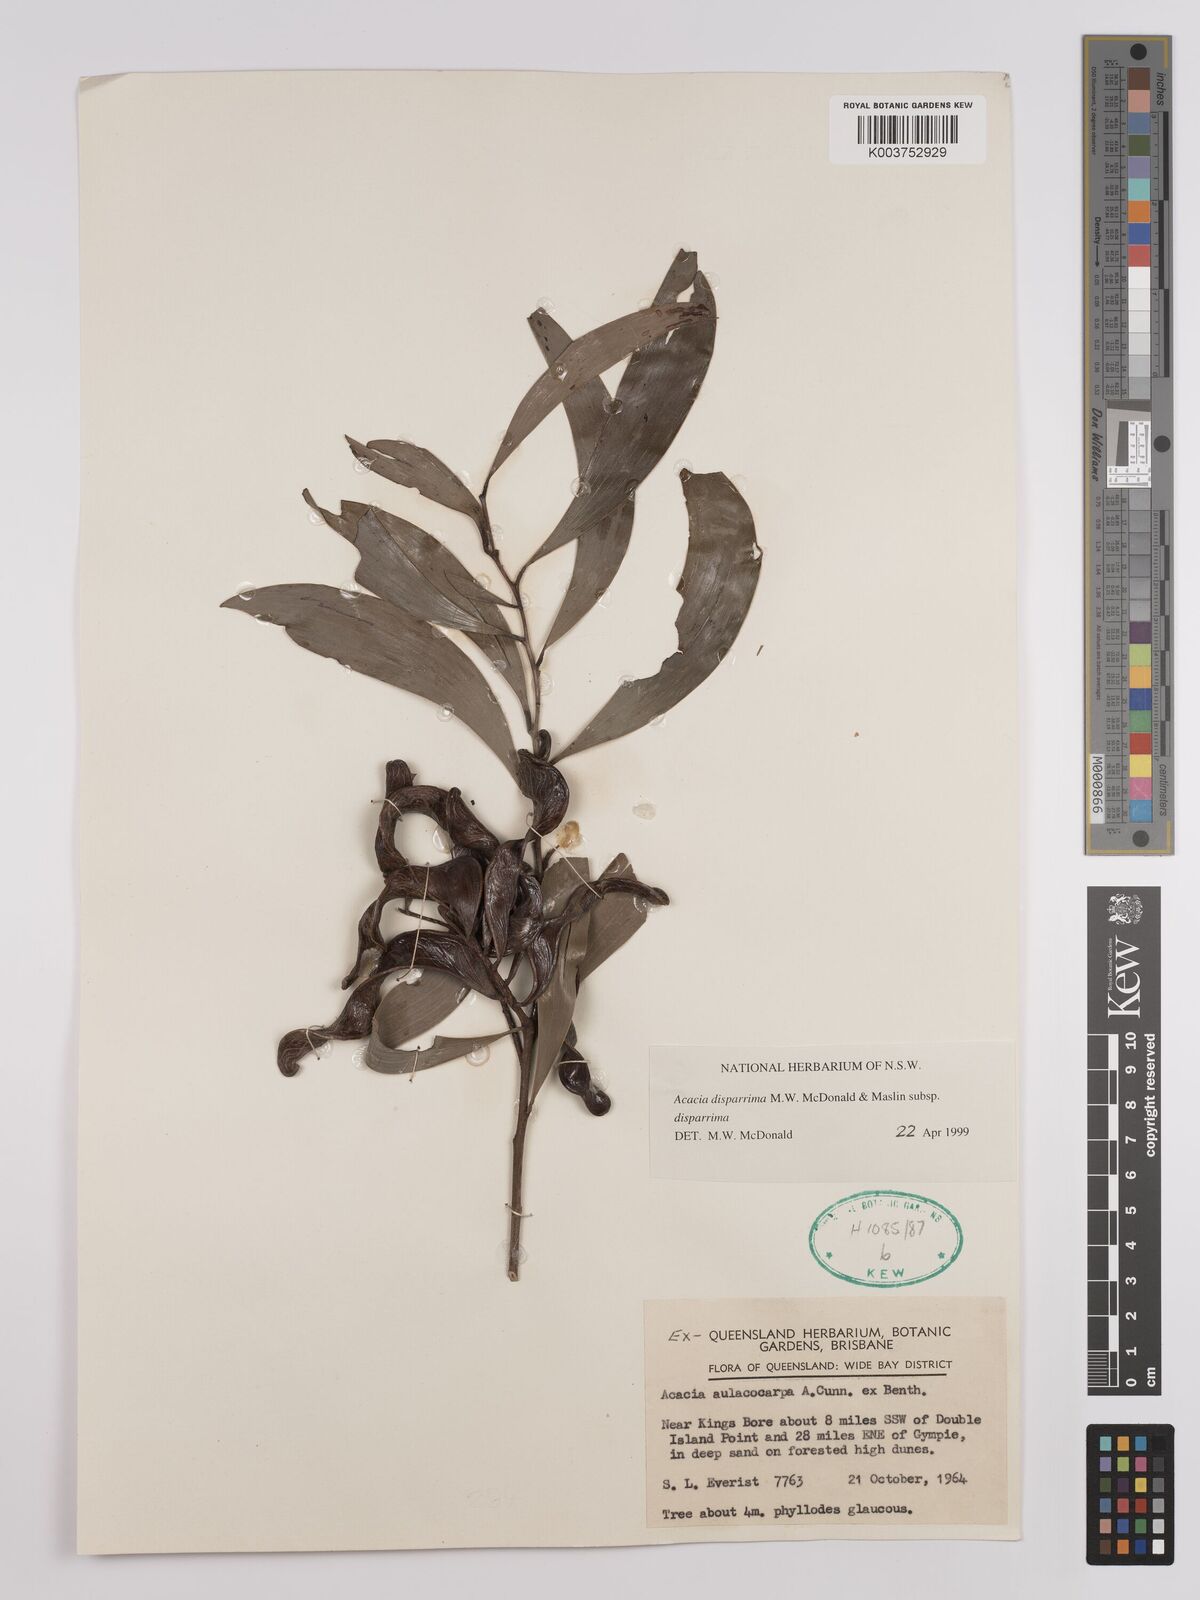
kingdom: Plantae
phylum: Tracheophyta
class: Magnoliopsida
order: Fabales
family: Fabaceae
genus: Acacia
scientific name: Acacia disparrima
